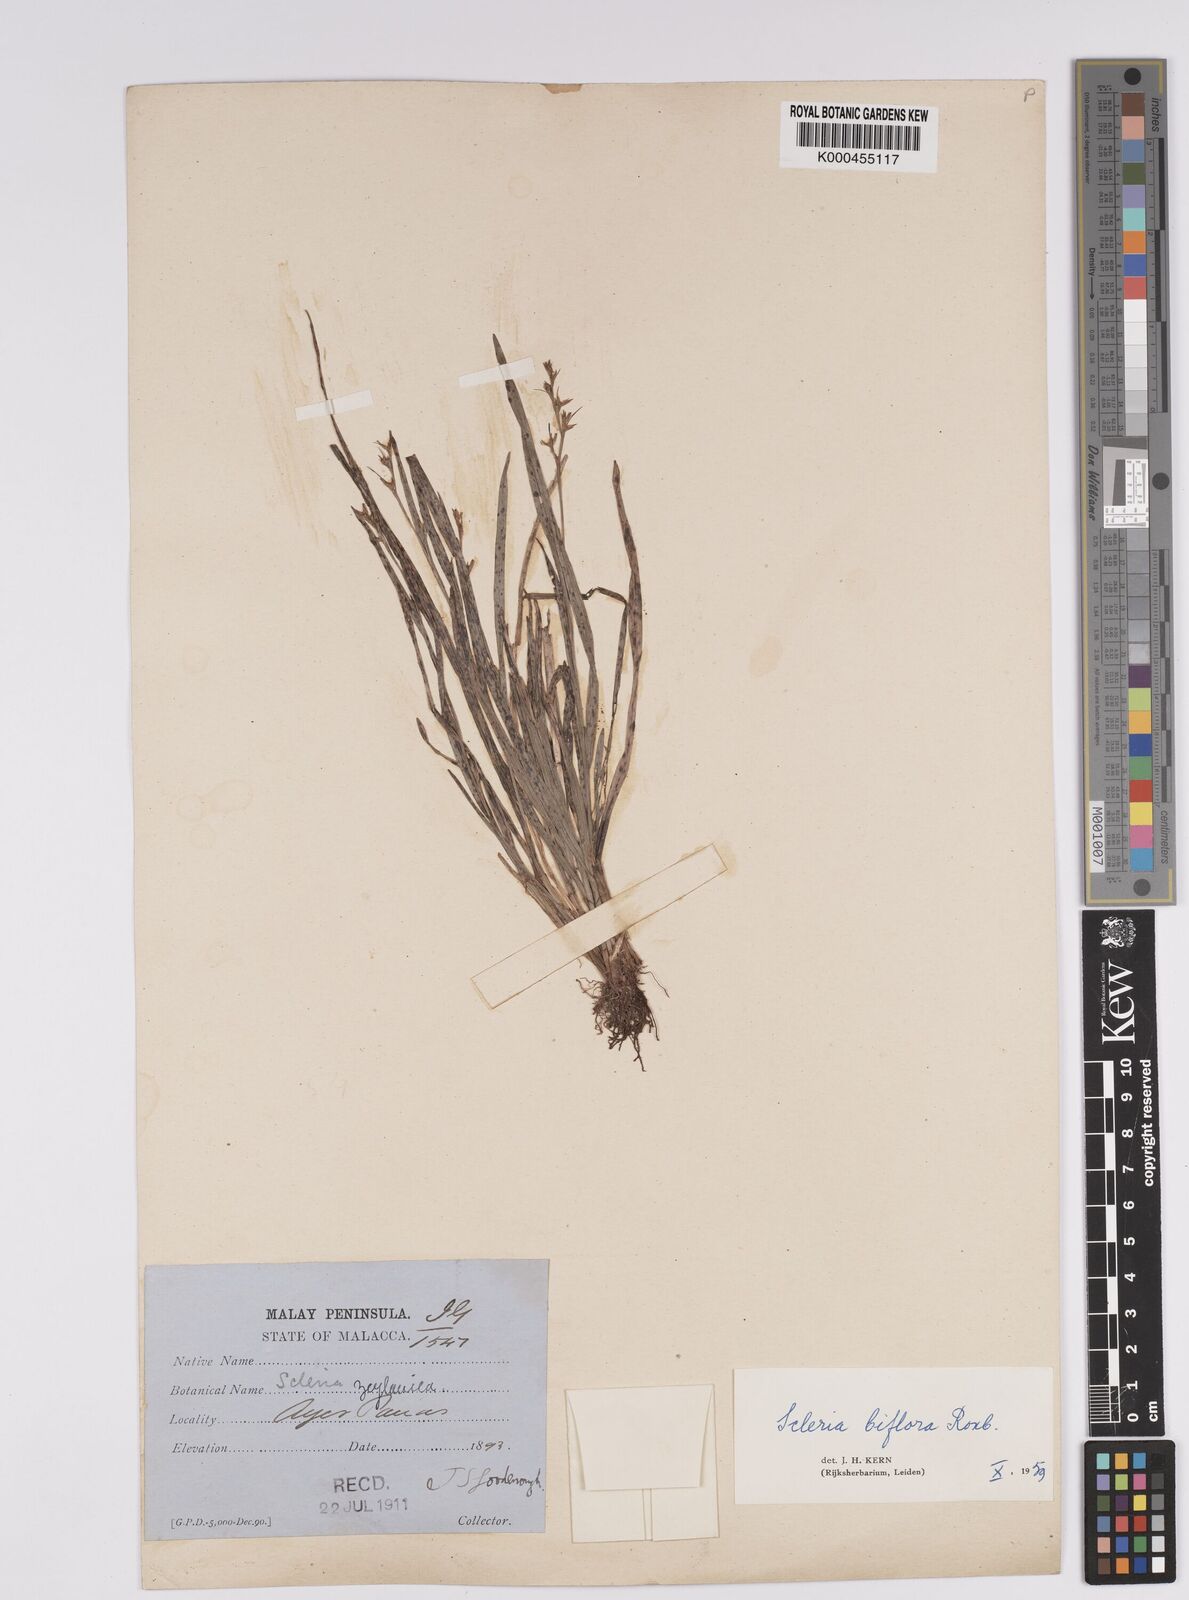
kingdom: Plantae
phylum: Tracheophyta
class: Liliopsida
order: Poales
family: Cyperaceae
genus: Scleria
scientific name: Scleria biflora
